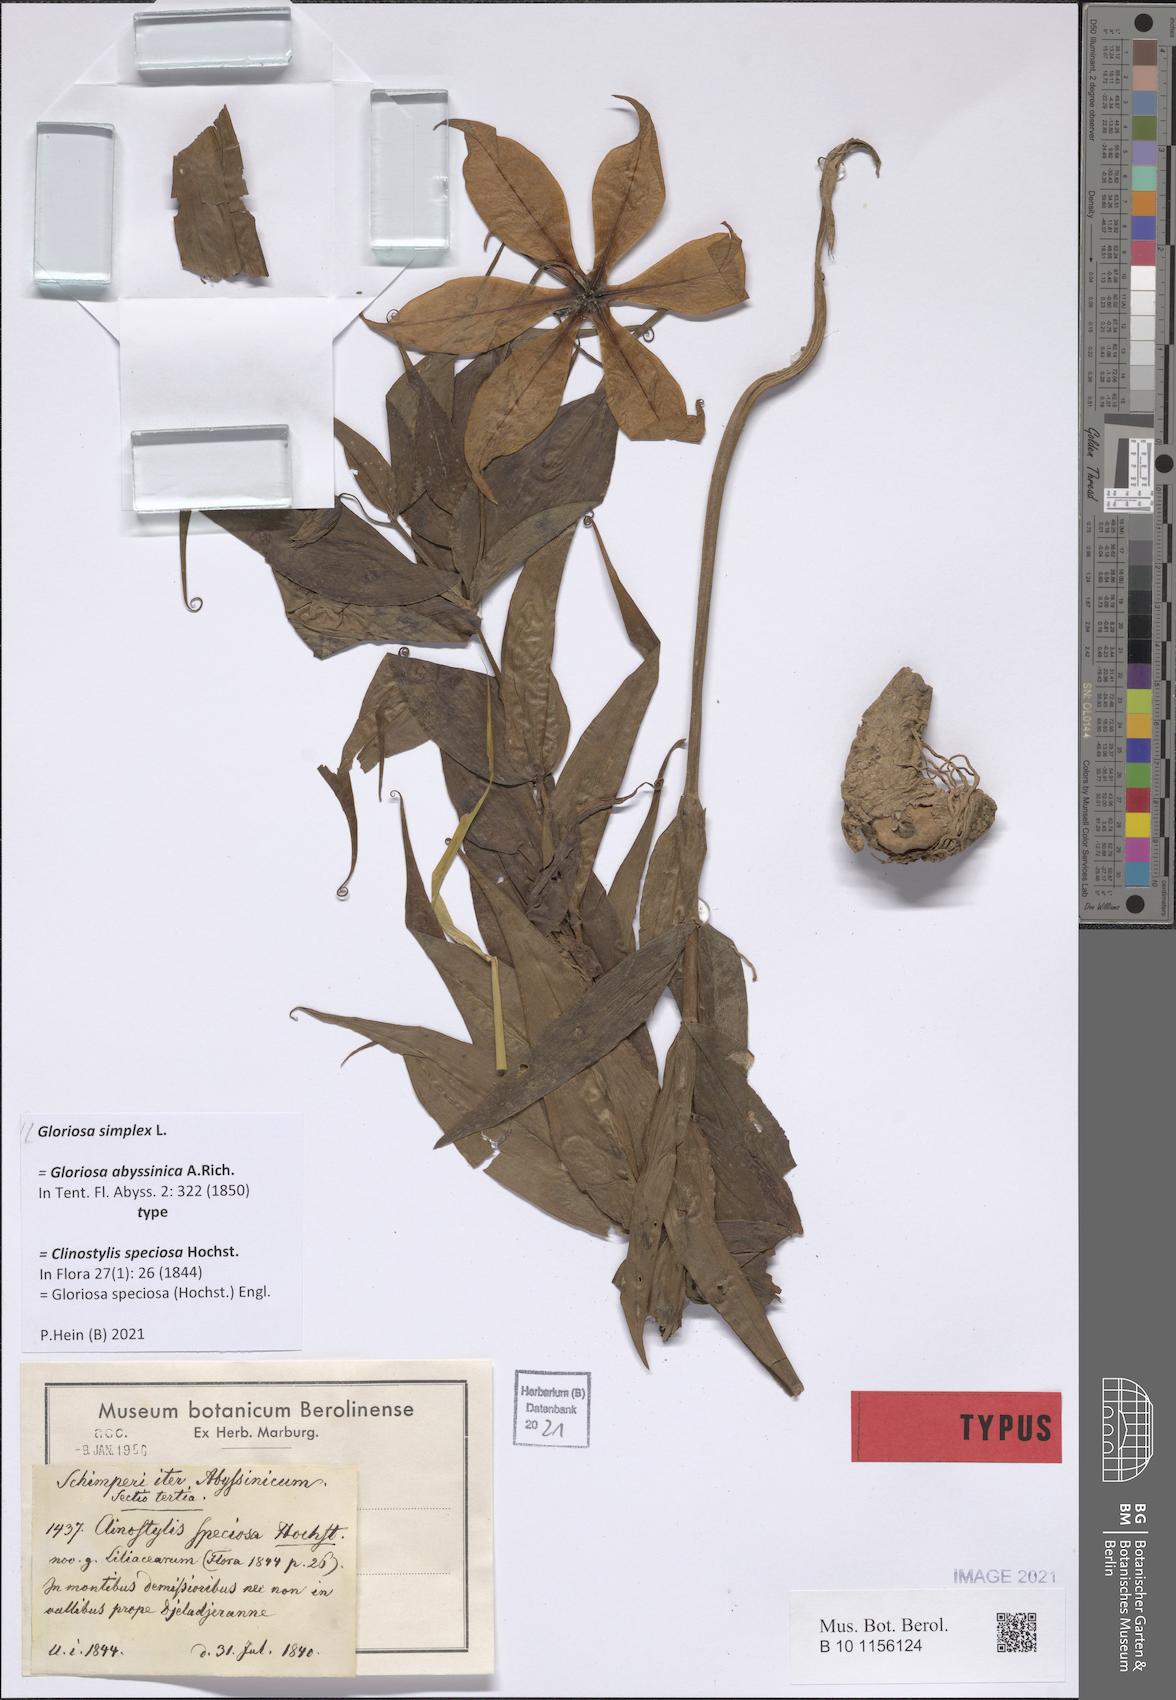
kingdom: Plantae
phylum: Tracheophyta
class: Liliopsida
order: Liliales
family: Colchicaceae
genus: Gloriosa
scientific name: Gloriosa simplex
